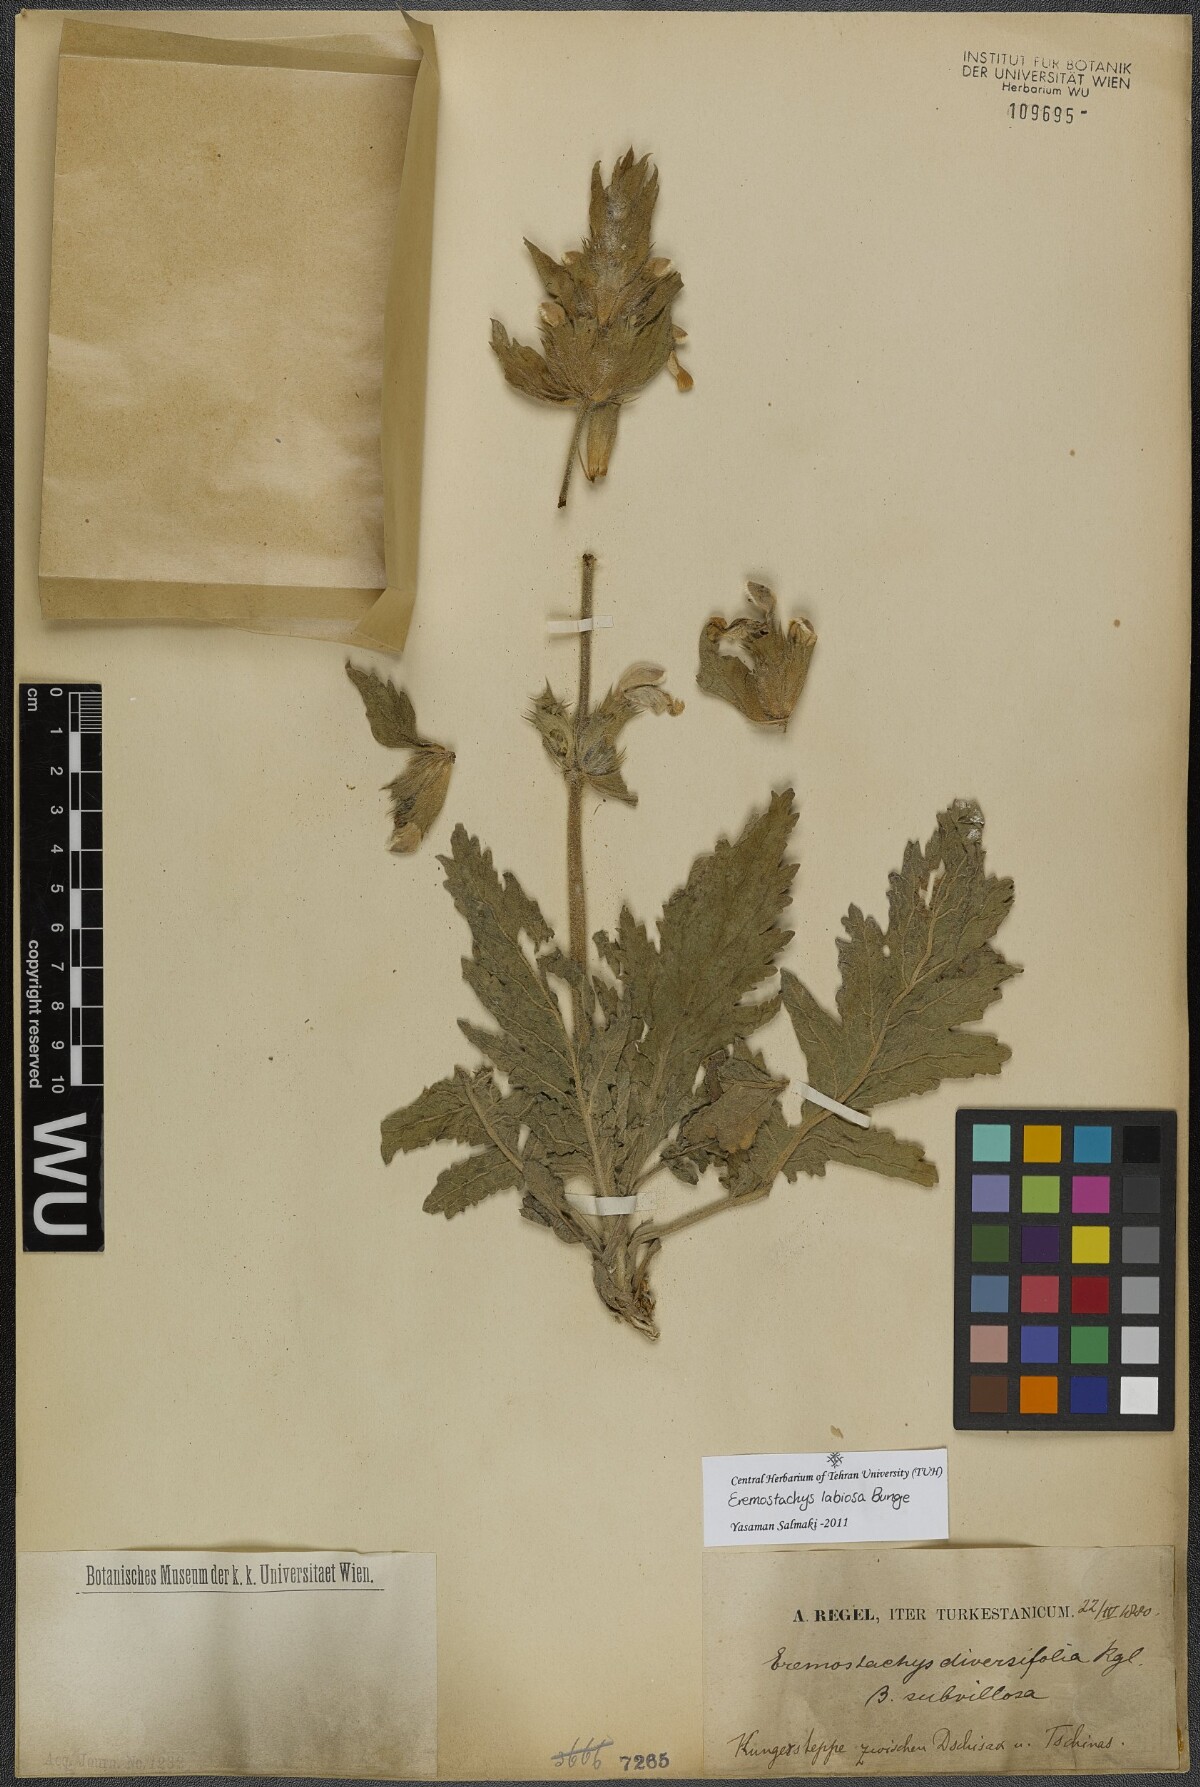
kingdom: Plantae
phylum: Tracheophyta
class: Magnoliopsida
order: Lamiales
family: Lamiaceae
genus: Phlomoides
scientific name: Phlomoides labiosa
